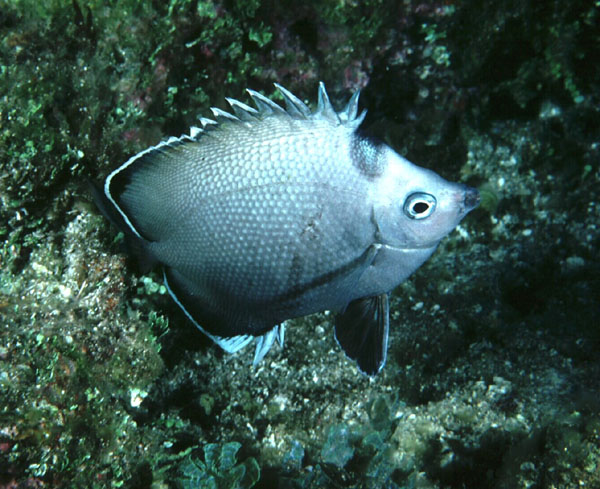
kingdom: Animalia
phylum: Chordata
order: Perciformes
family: Chaetodontidae
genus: Chaetodon
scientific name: Chaetodon litus
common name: Easter island butterflyfish
